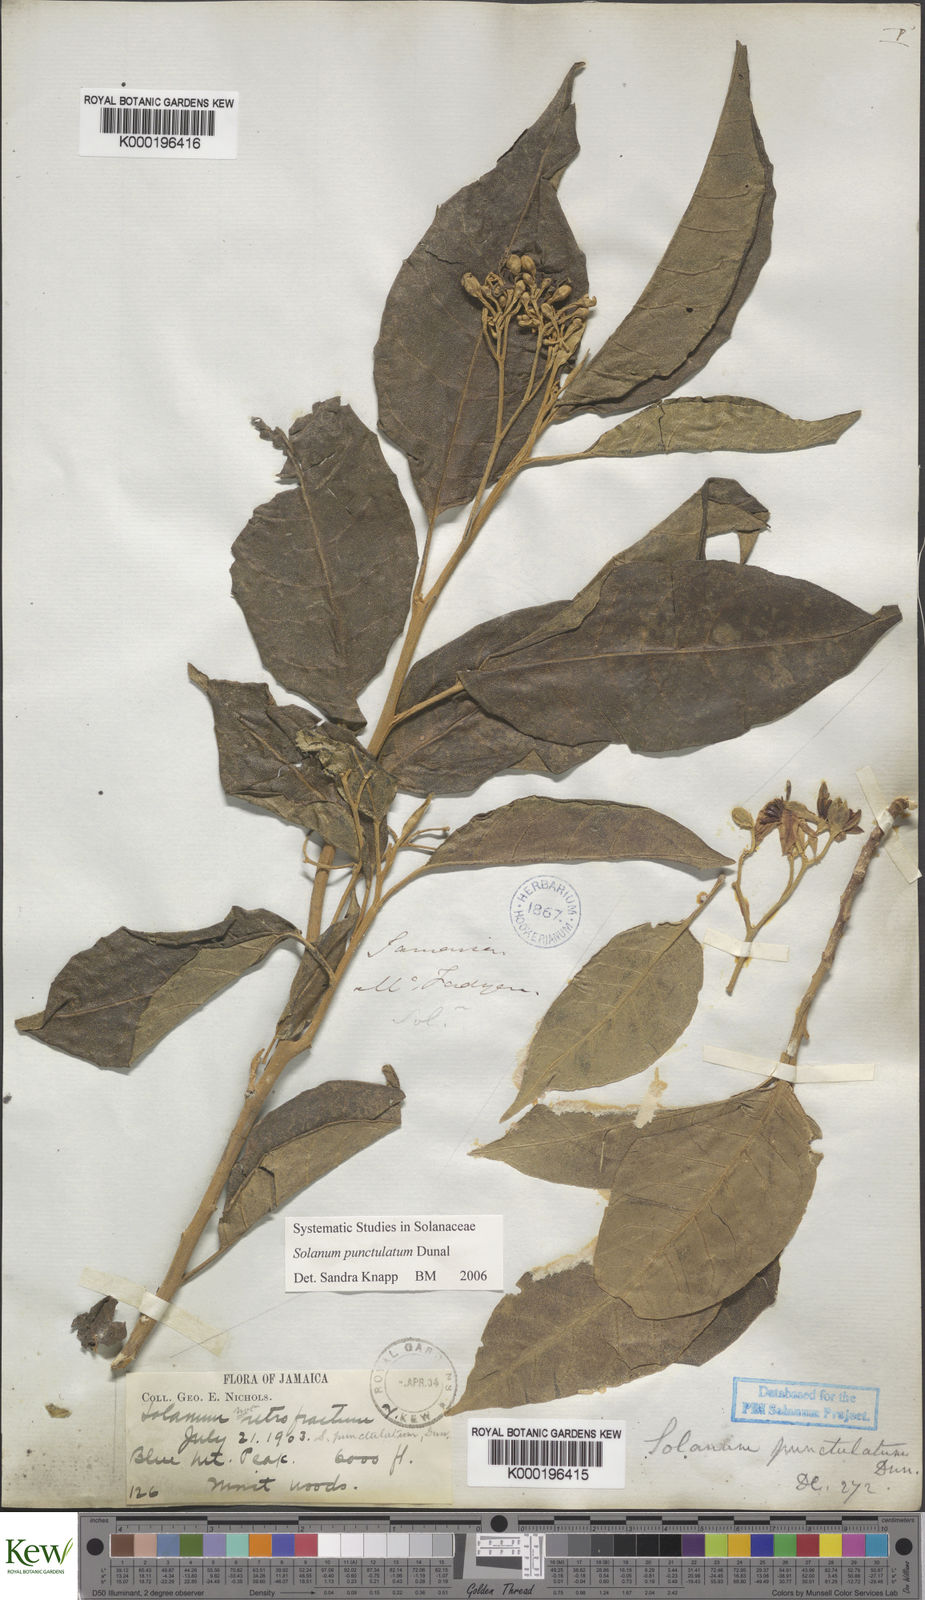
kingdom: Plantae
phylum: Tracheophyta
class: Magnoliopsida
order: Solanales
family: Solanaceae
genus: Solanum
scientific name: Solanum punctulatum
